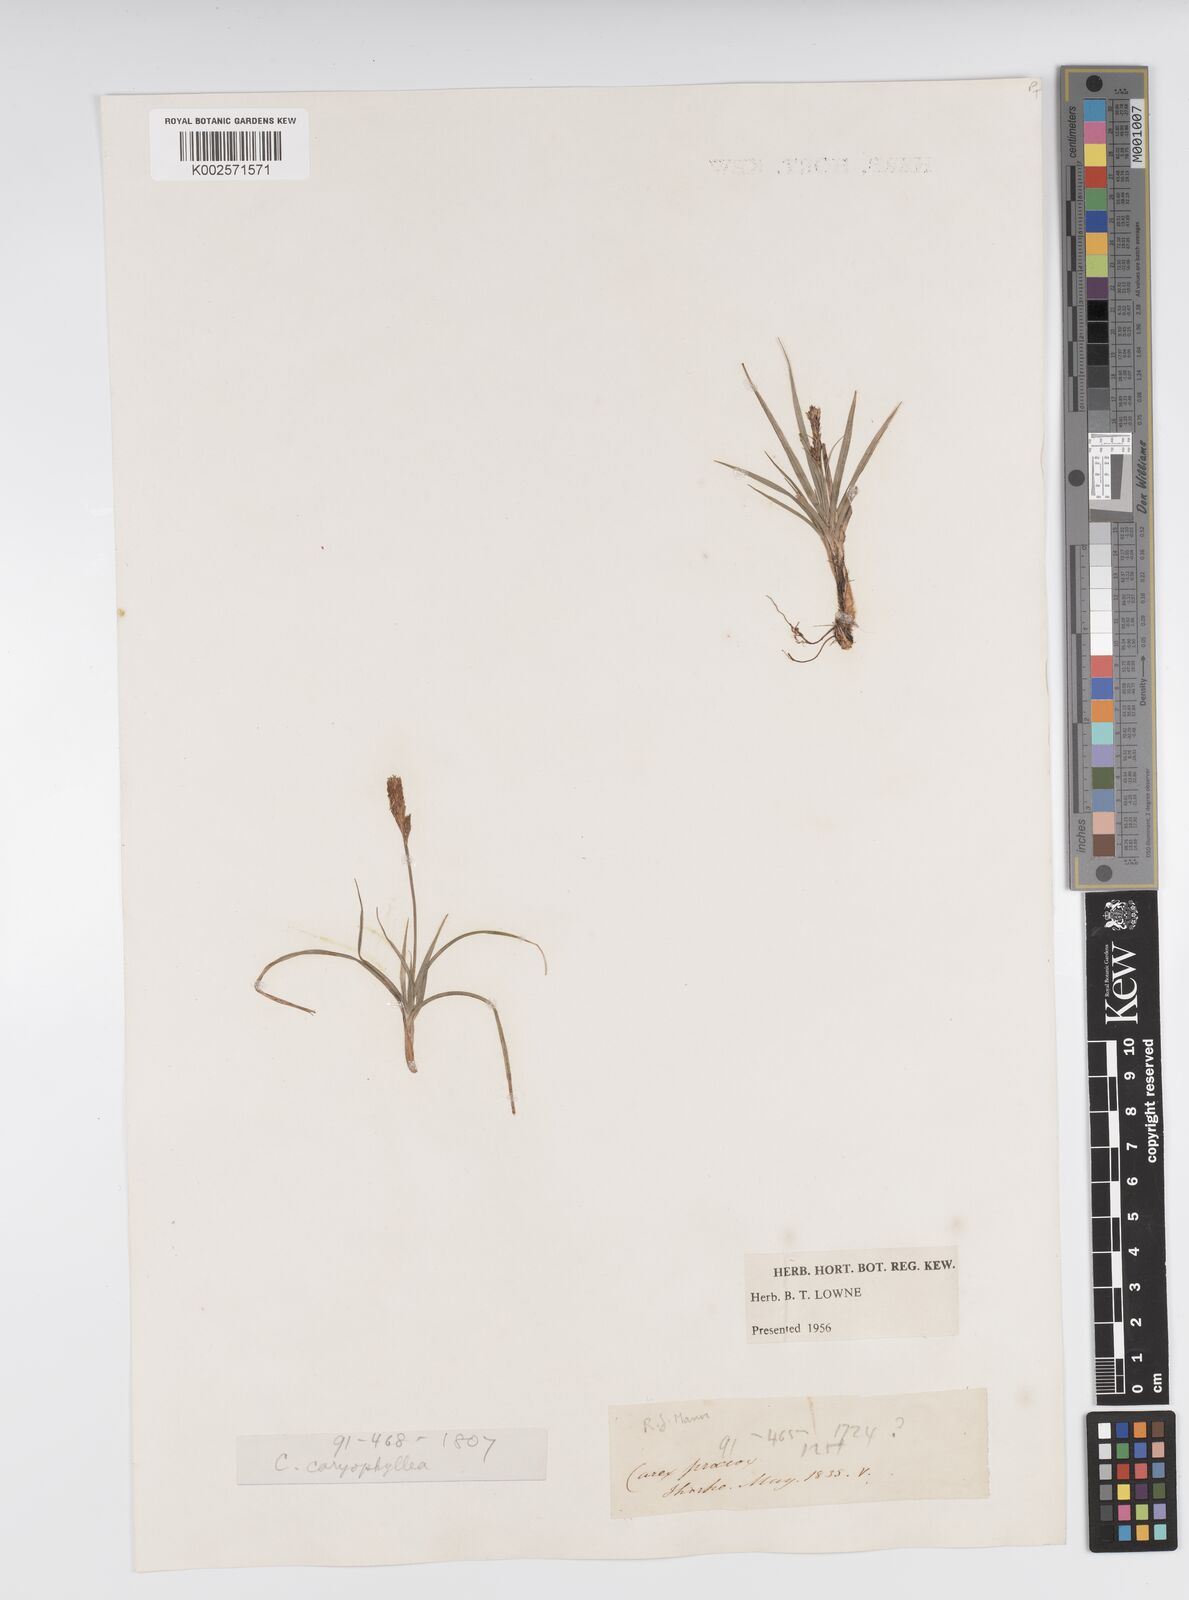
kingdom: Plantae
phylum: Tracheophyta
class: Liliopsida
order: Poales
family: Cyperaceae
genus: Carex
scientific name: Carex caryophyllea
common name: Spring sedge
